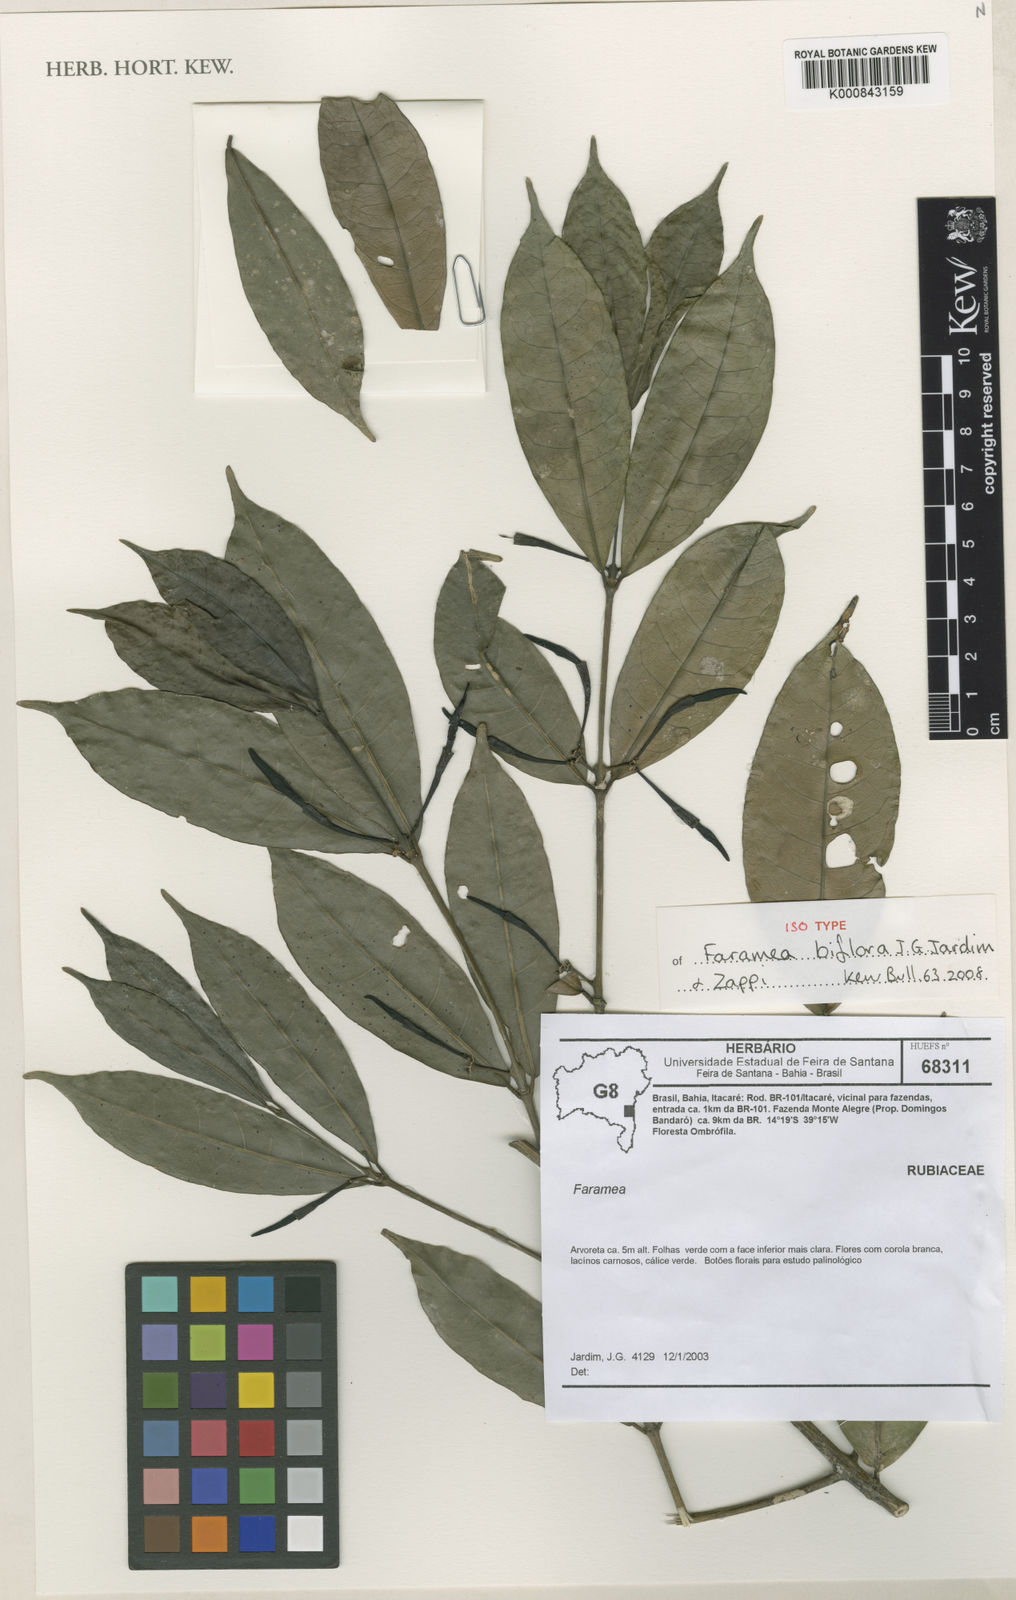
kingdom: Plantae
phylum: Tracheophyta
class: Magnoliopsida
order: Gentianales
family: Rubiaceae
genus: Faramea
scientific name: Faramea biflora
